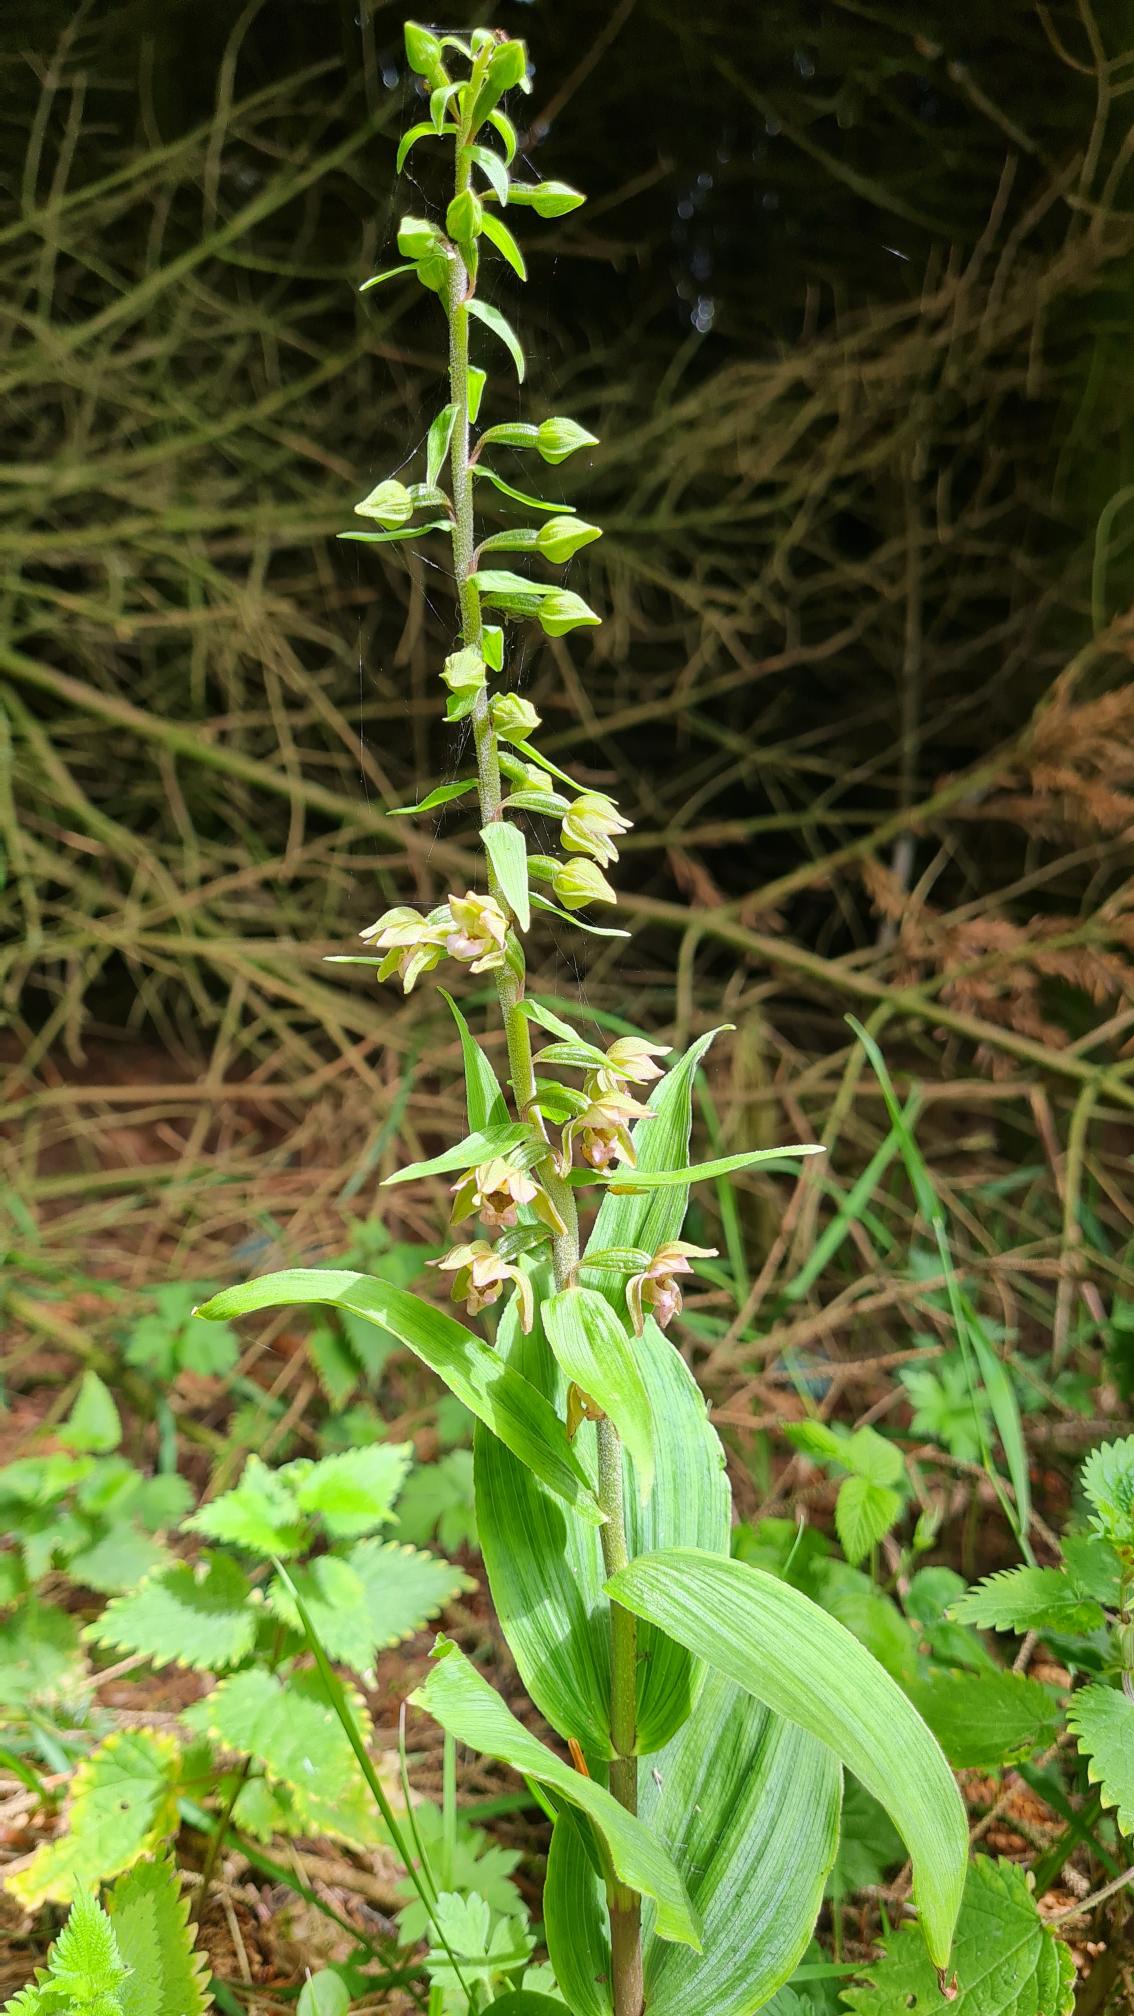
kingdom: Plantae
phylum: Tracheophyta
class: Liliopsida
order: Asparagales
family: Orchidaceae
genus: Epipactis
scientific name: Epipactis helleborine
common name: Skov-hullæbe
